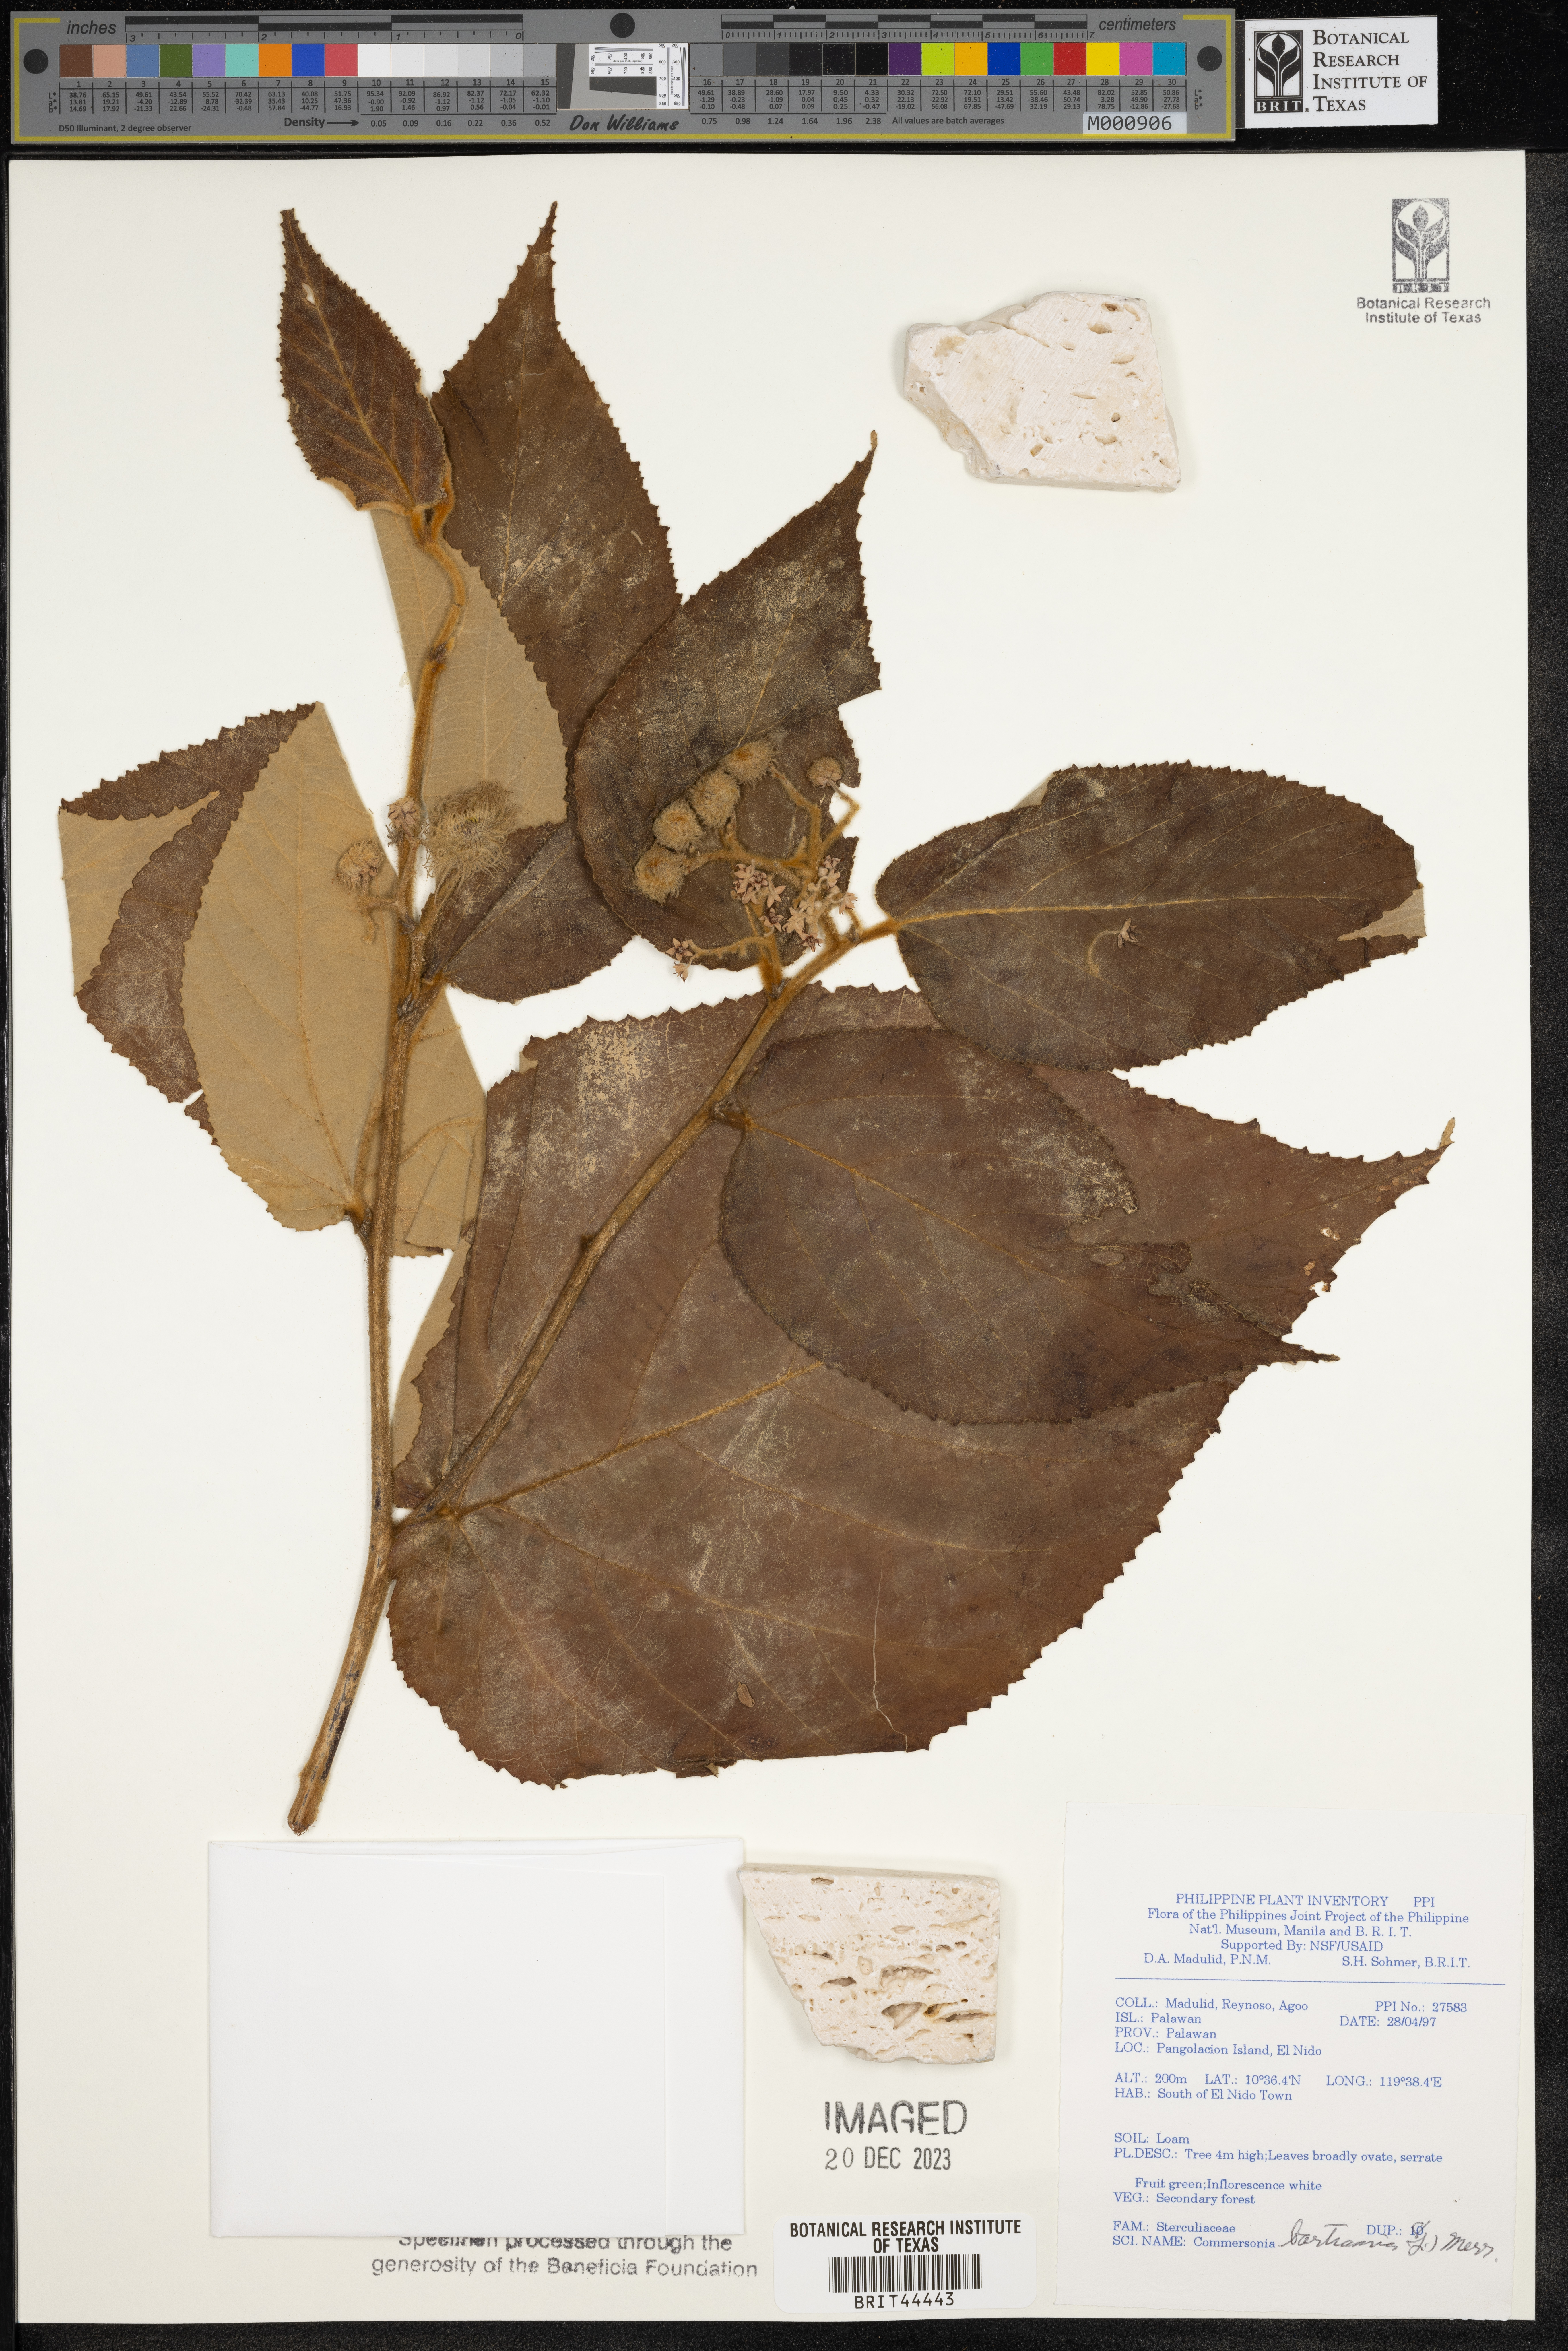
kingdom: Plantae
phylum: Tracheophyta
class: Magnoliopsida
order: Malvales
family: Malvaceae
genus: Commersonia
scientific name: Commersonia bartramia
